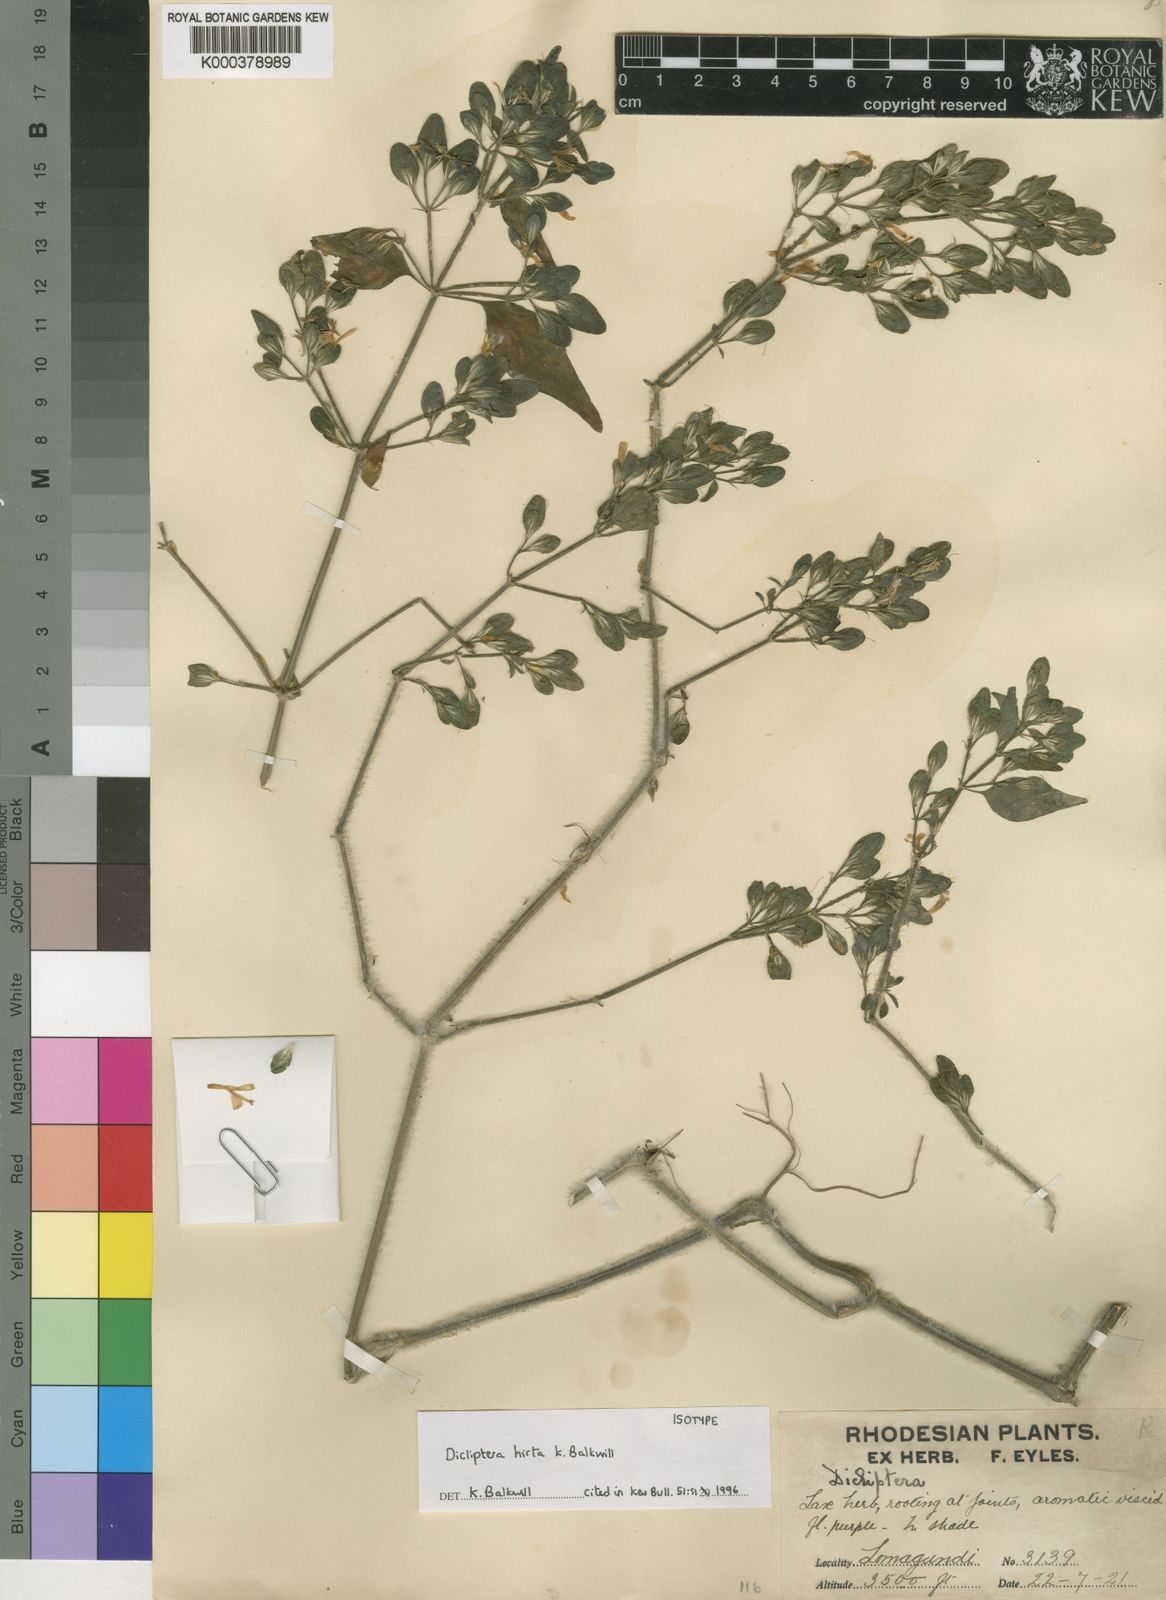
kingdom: Plantae
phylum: Tracheophyta
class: Magnoliopsida
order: Lamiales
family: Acanthaceae
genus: Dicliptera
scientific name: Dicliptera maculata
